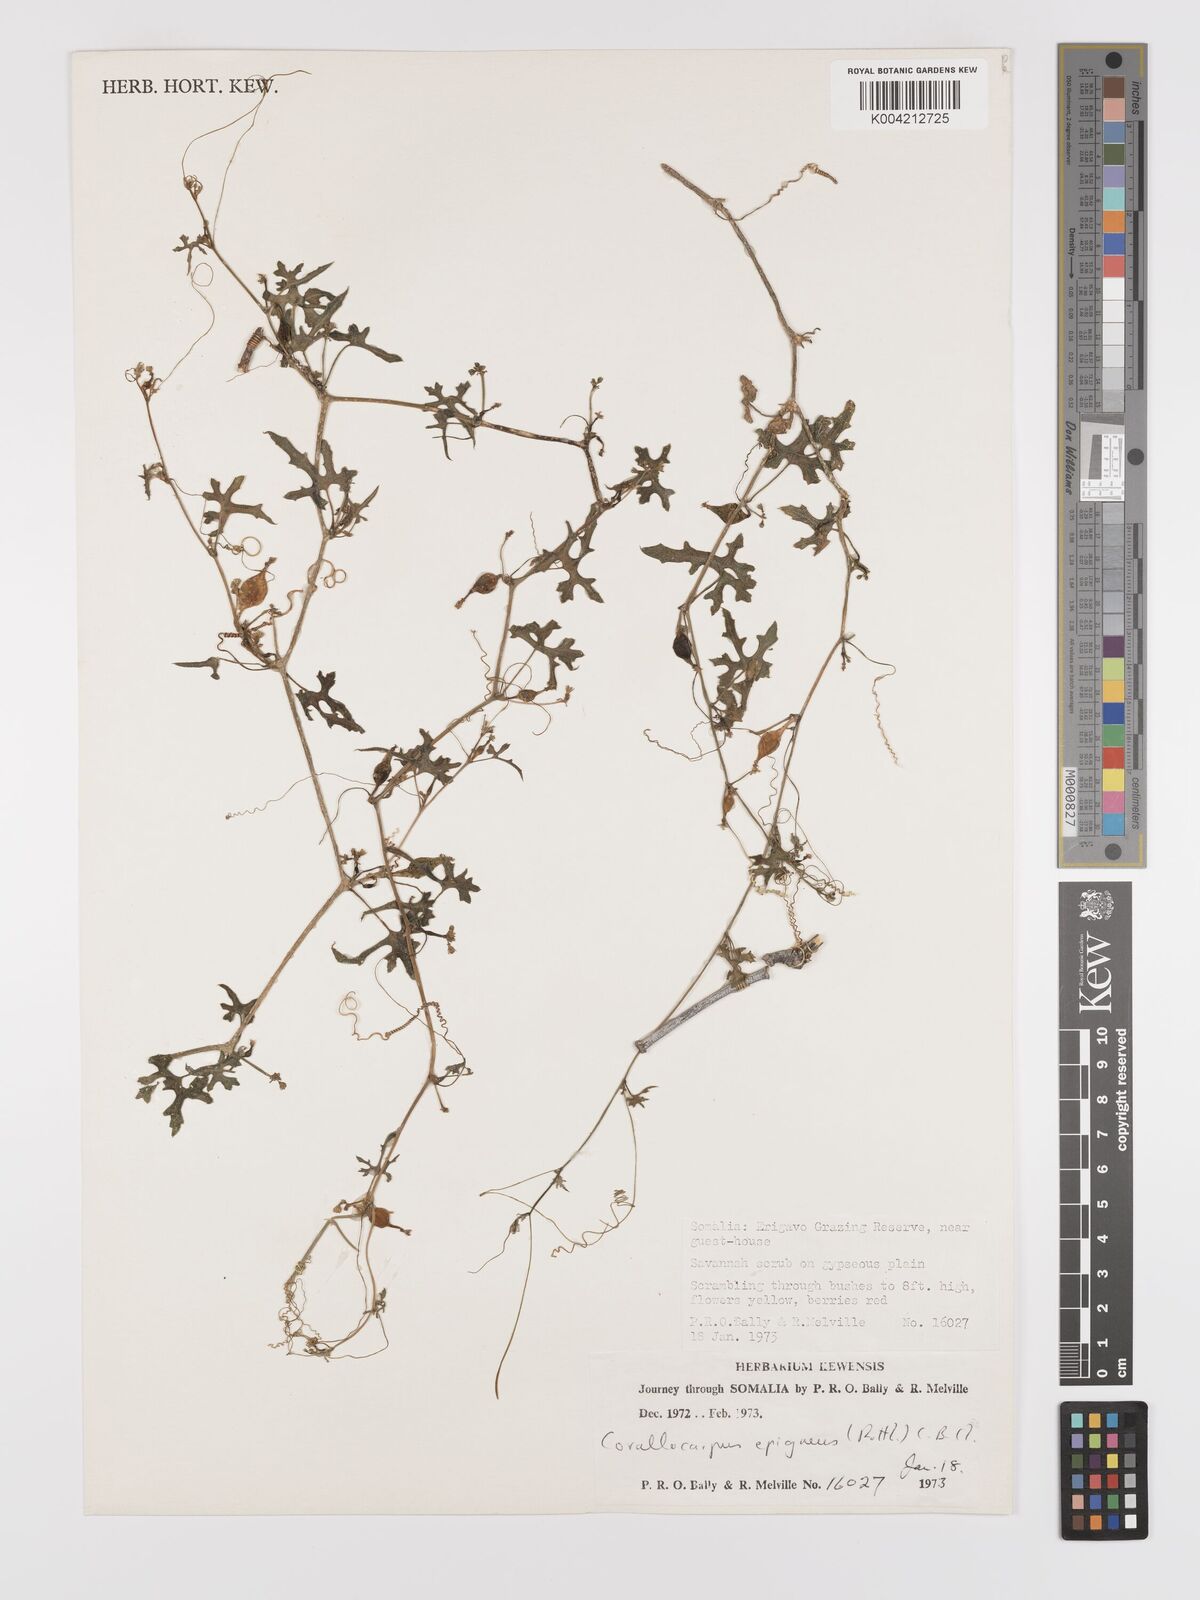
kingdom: Plantae
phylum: Tracheophyta
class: Magnoliopsida
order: Cucurbitales
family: Cucurbitaceae
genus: Corallocarpus
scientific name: Corallocarpus epigaeus
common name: Indian bryonia
